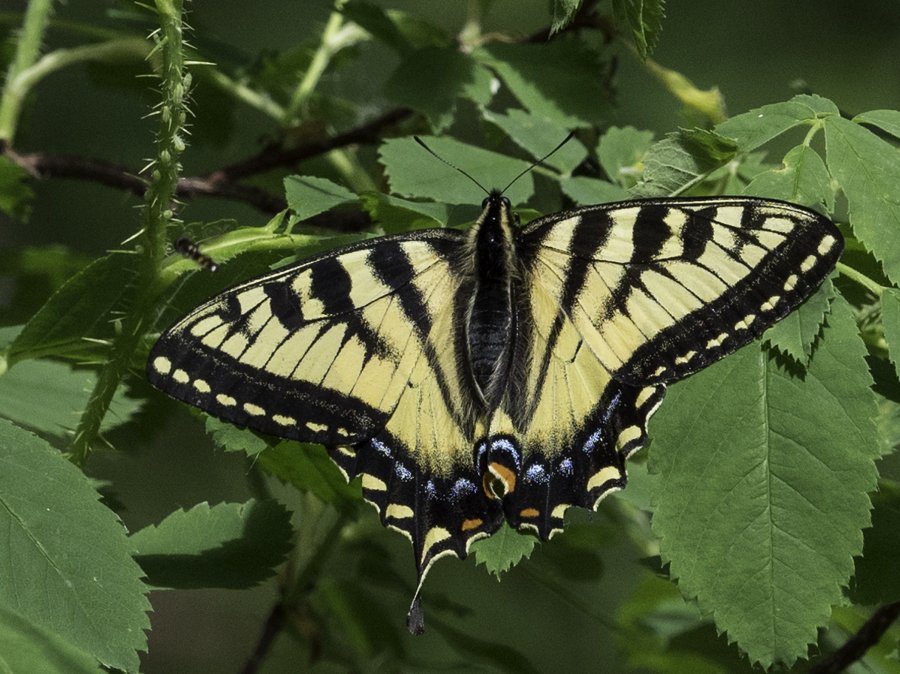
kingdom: Animalia
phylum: Arthropoda
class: Insecta
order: Lepidoptera
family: Papilionidae
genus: Pterourus
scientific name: Pterourus canadensis
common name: Canadian Tiger Swallowtail
